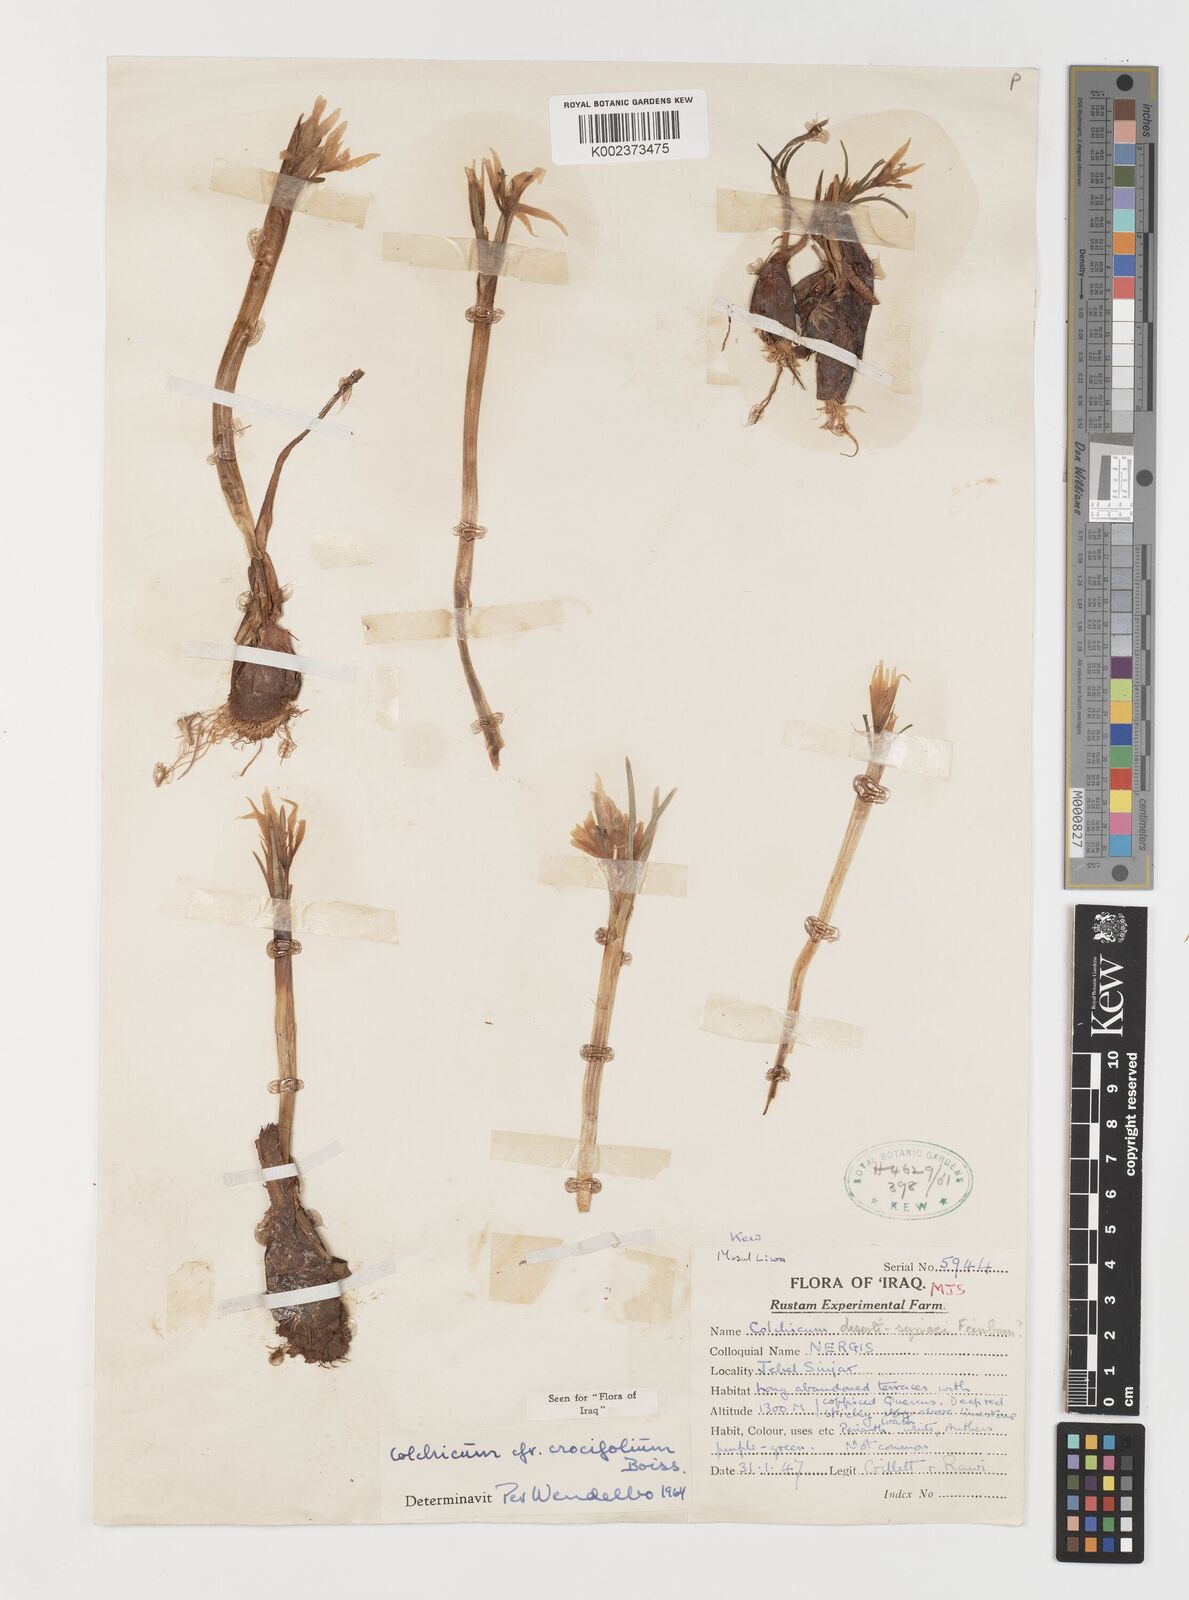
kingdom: Plantae
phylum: Tracheophyta
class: Liliopsida
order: Liliales
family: Colchicaceae
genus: Colchicum
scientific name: Colchicum schimperi
